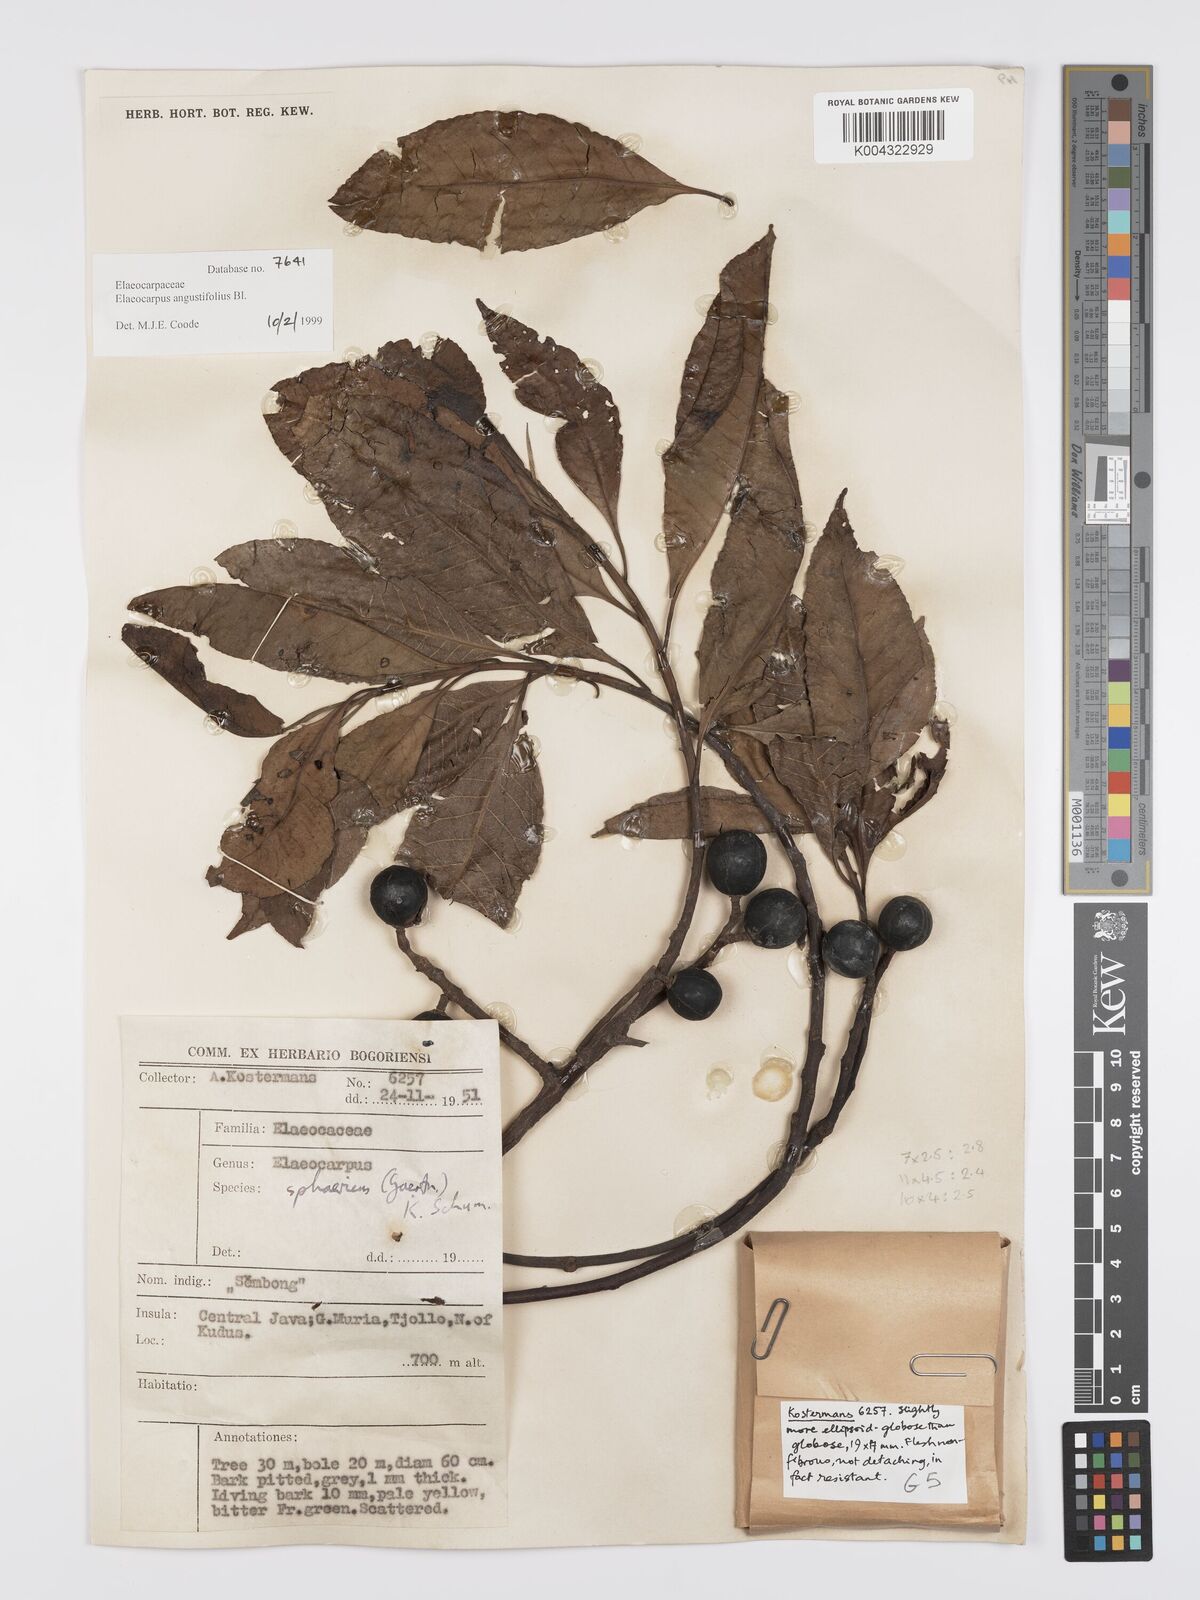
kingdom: Plantae
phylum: Tracheophyta
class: Magnoliopsida
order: Oxalidales
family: Elaeocarpaceae
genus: Elaeocarpus
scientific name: Elaeocarpus
